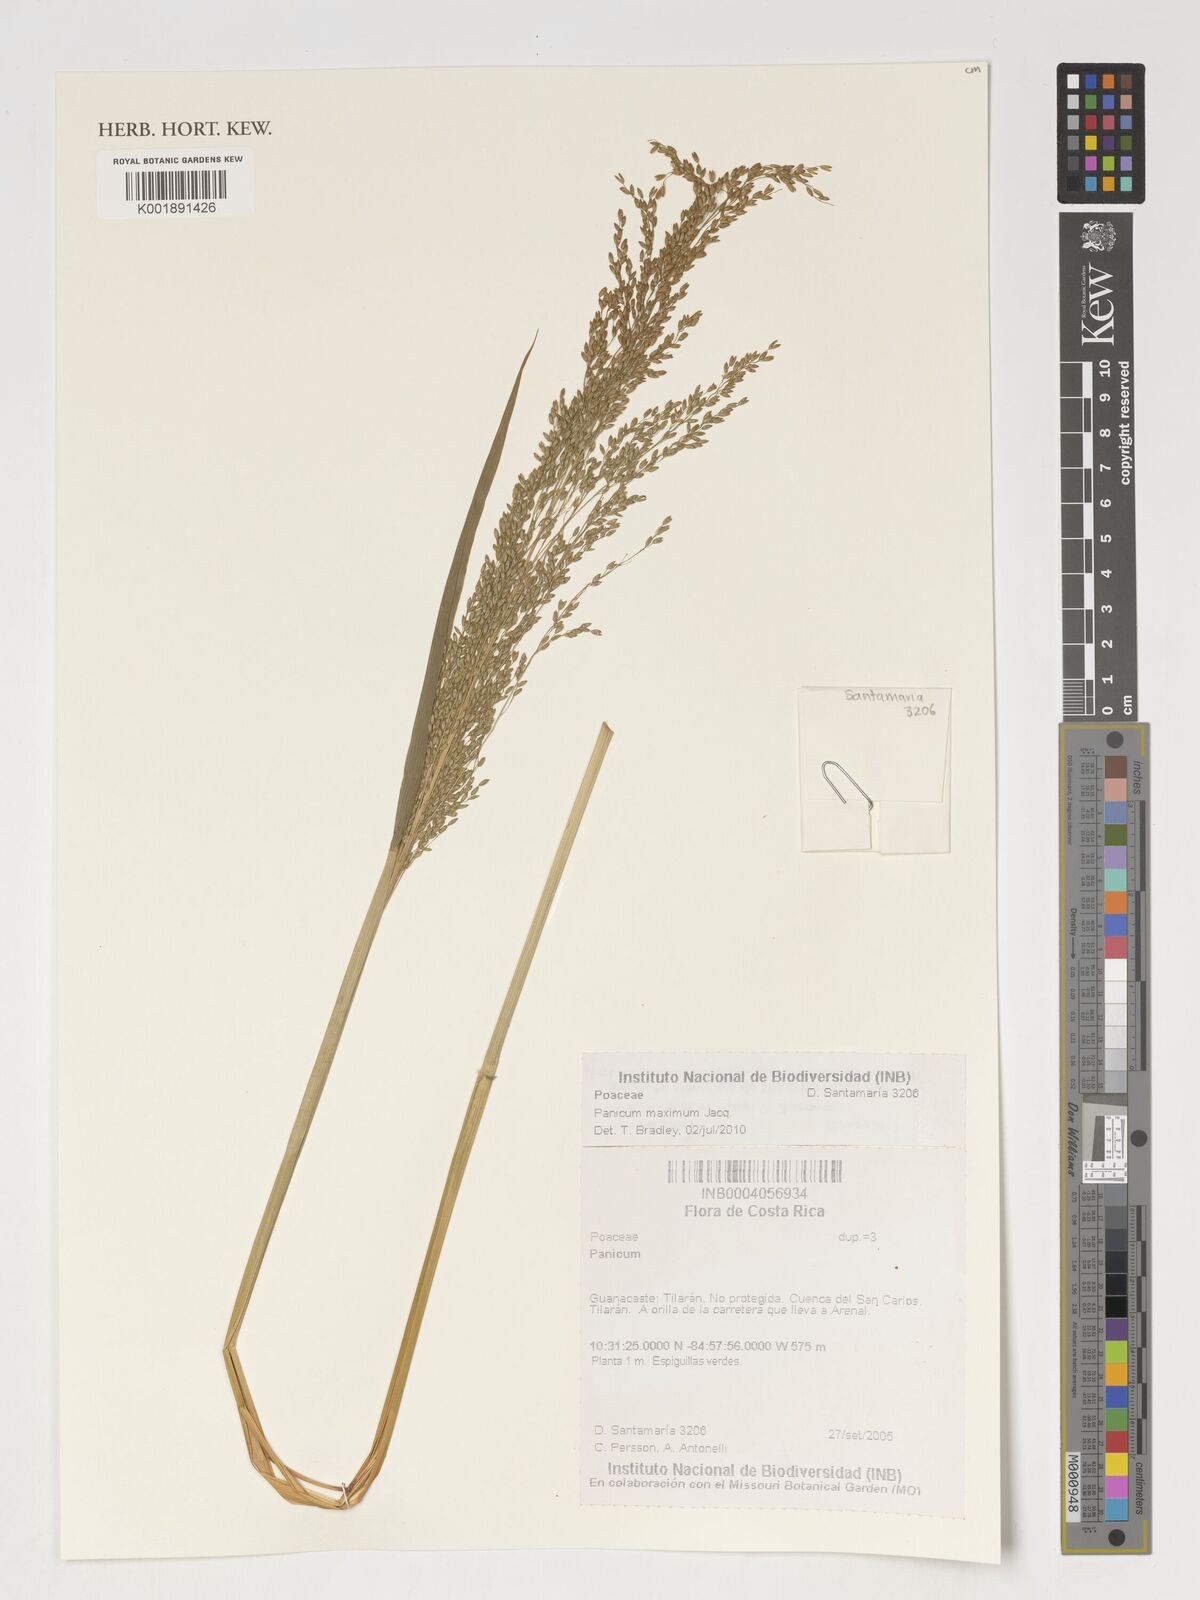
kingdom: Plantae
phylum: Tracheophyta
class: Liliopsida
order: Poales
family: Poaceae
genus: Panicum
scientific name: Panicum
